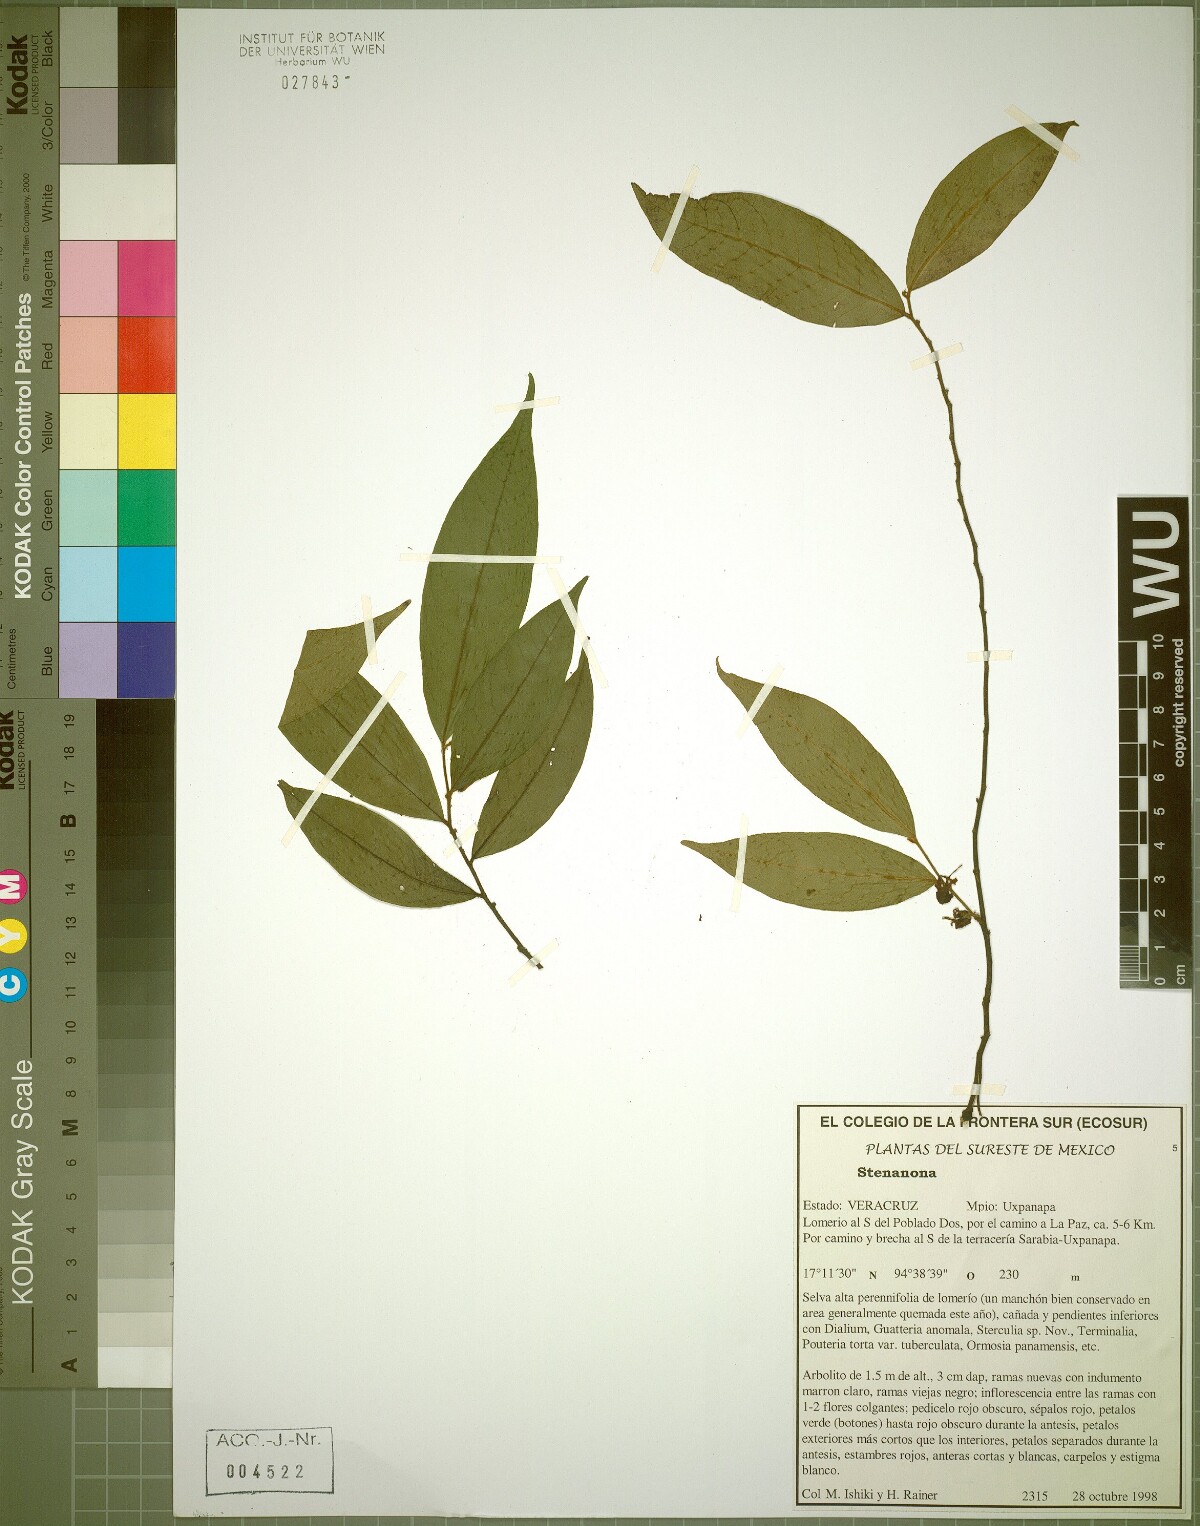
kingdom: Plantae
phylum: Tracheophyta
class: Magnoliopsida
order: Magnoliales
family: Annonaceae
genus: Stenanona
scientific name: Stenanona
